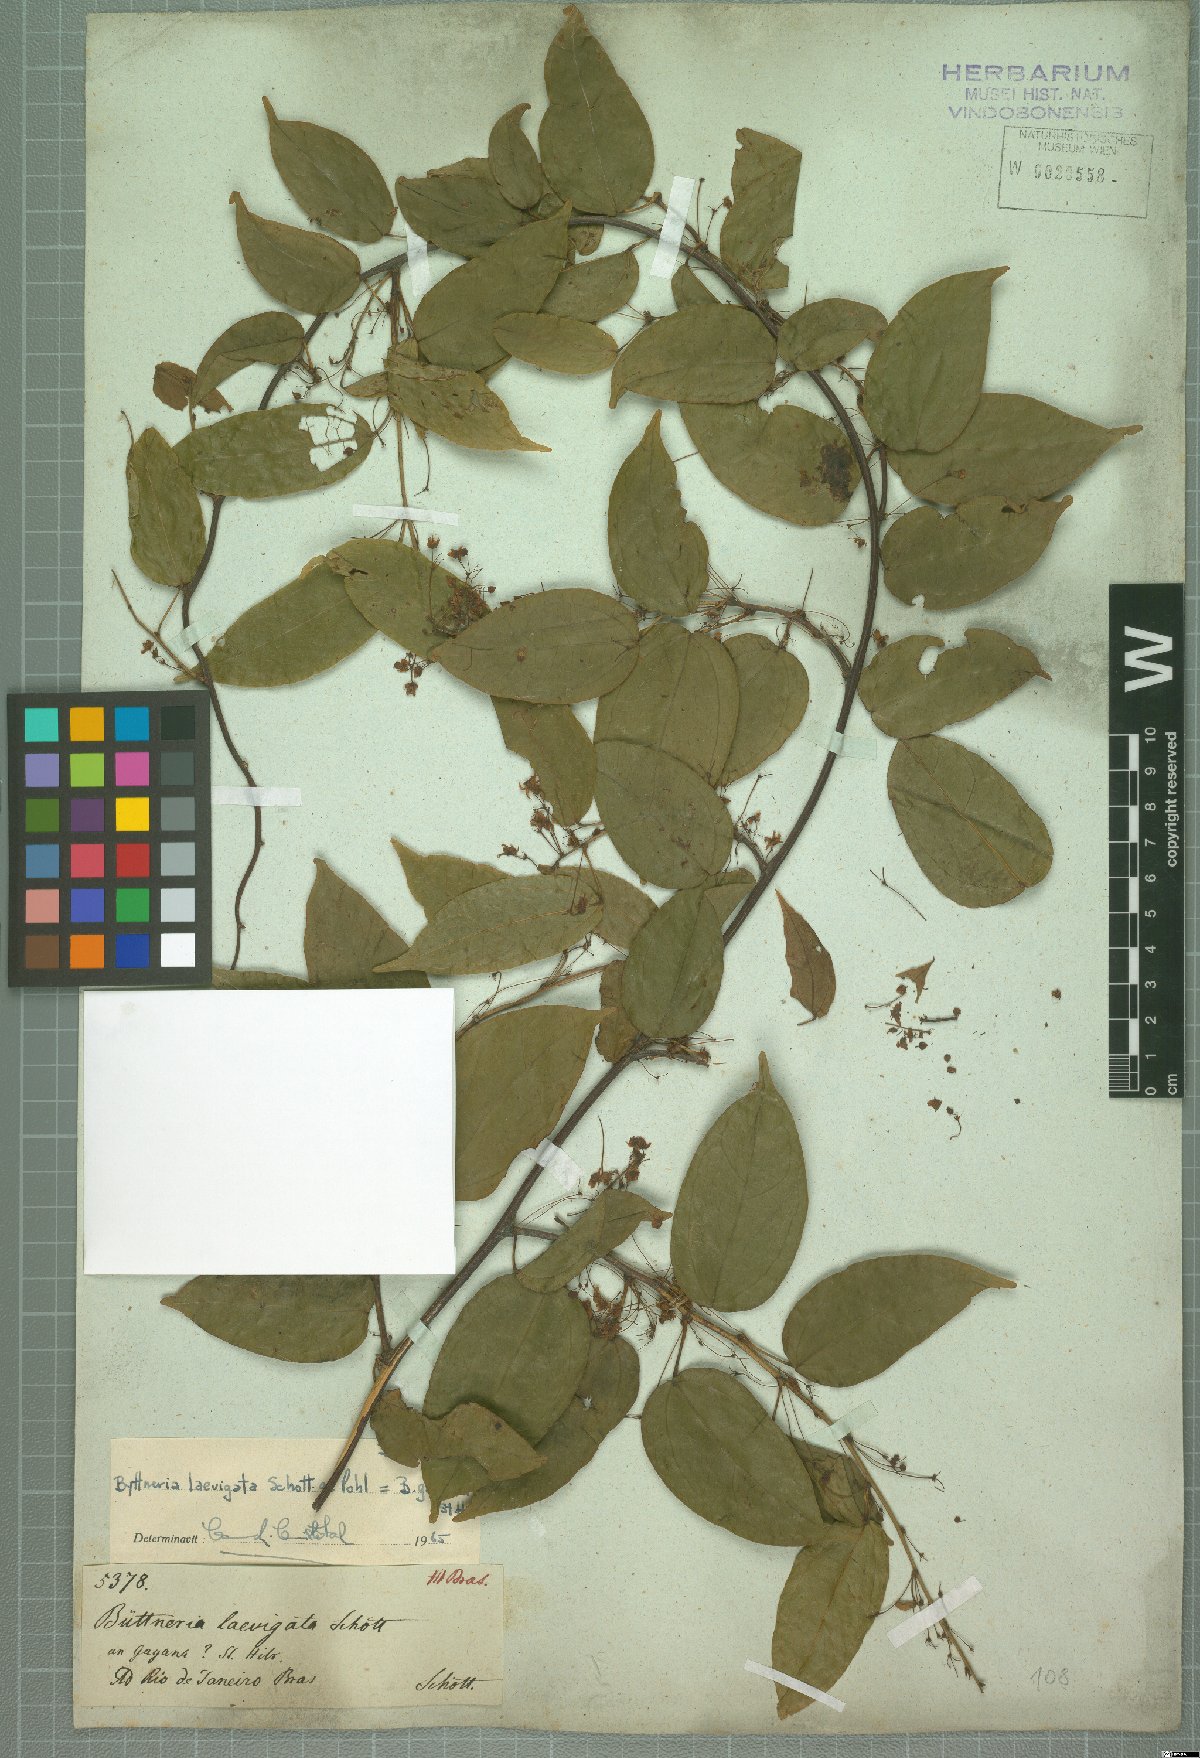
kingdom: Plantae
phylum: Tracheophyta
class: Magnoliopsida
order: Malvales
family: Malvaceae
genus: Byttneria
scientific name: Byttneria gayana
